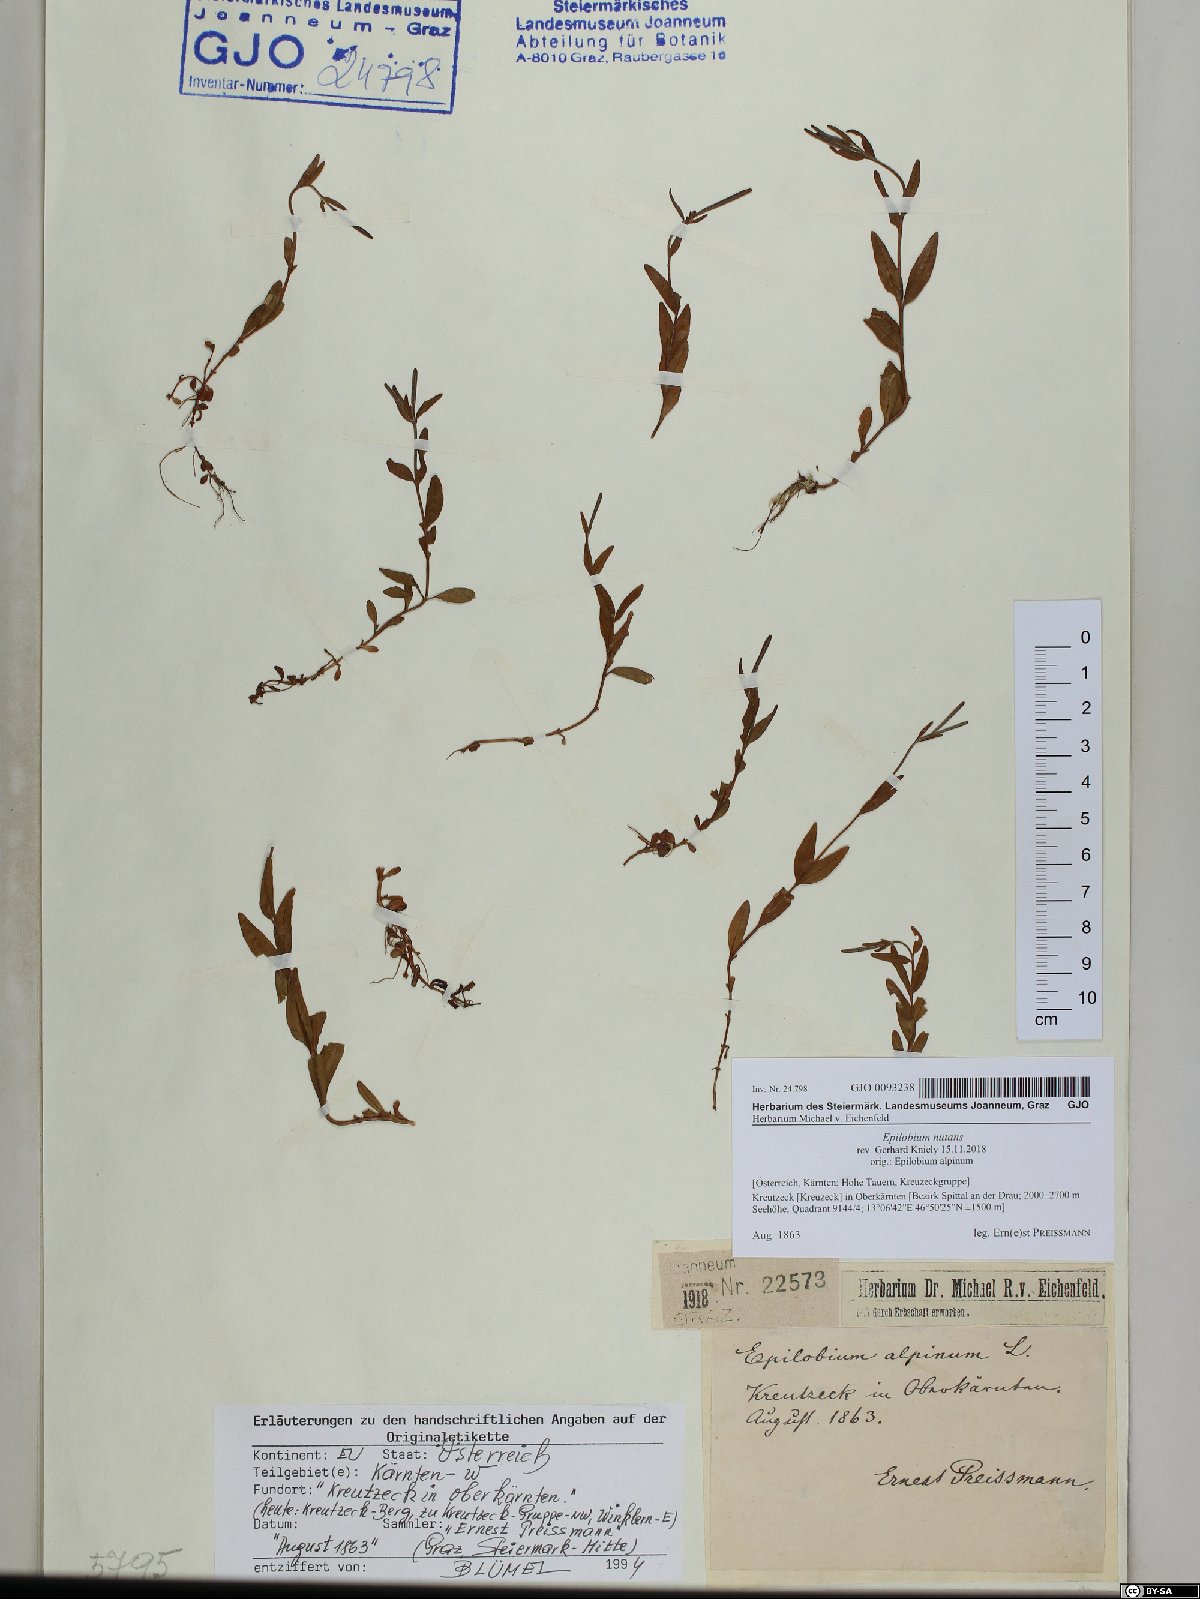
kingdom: Plantae
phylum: Tracheophyta
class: Magnoliopsida
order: Myrtales
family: Onagraceae
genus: Epilobium
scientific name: Epilobium nutans
